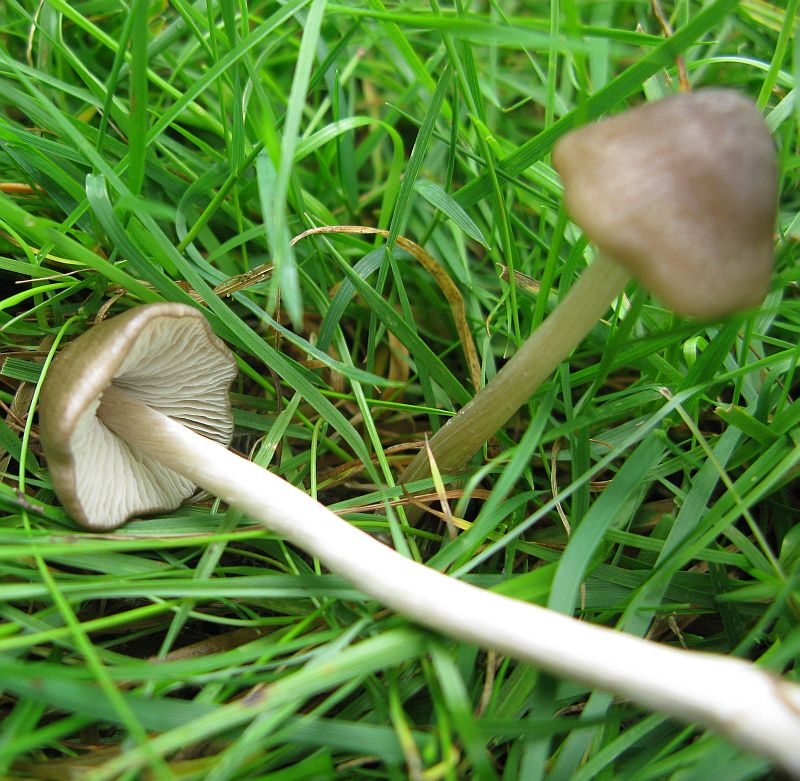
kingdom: Fungi
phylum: Basidiomycota
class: Agaricomycetes
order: Agaricales
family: Entolomataceae
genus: Entoloma
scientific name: Entoloma conferendum
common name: stjernesporet rødblad
